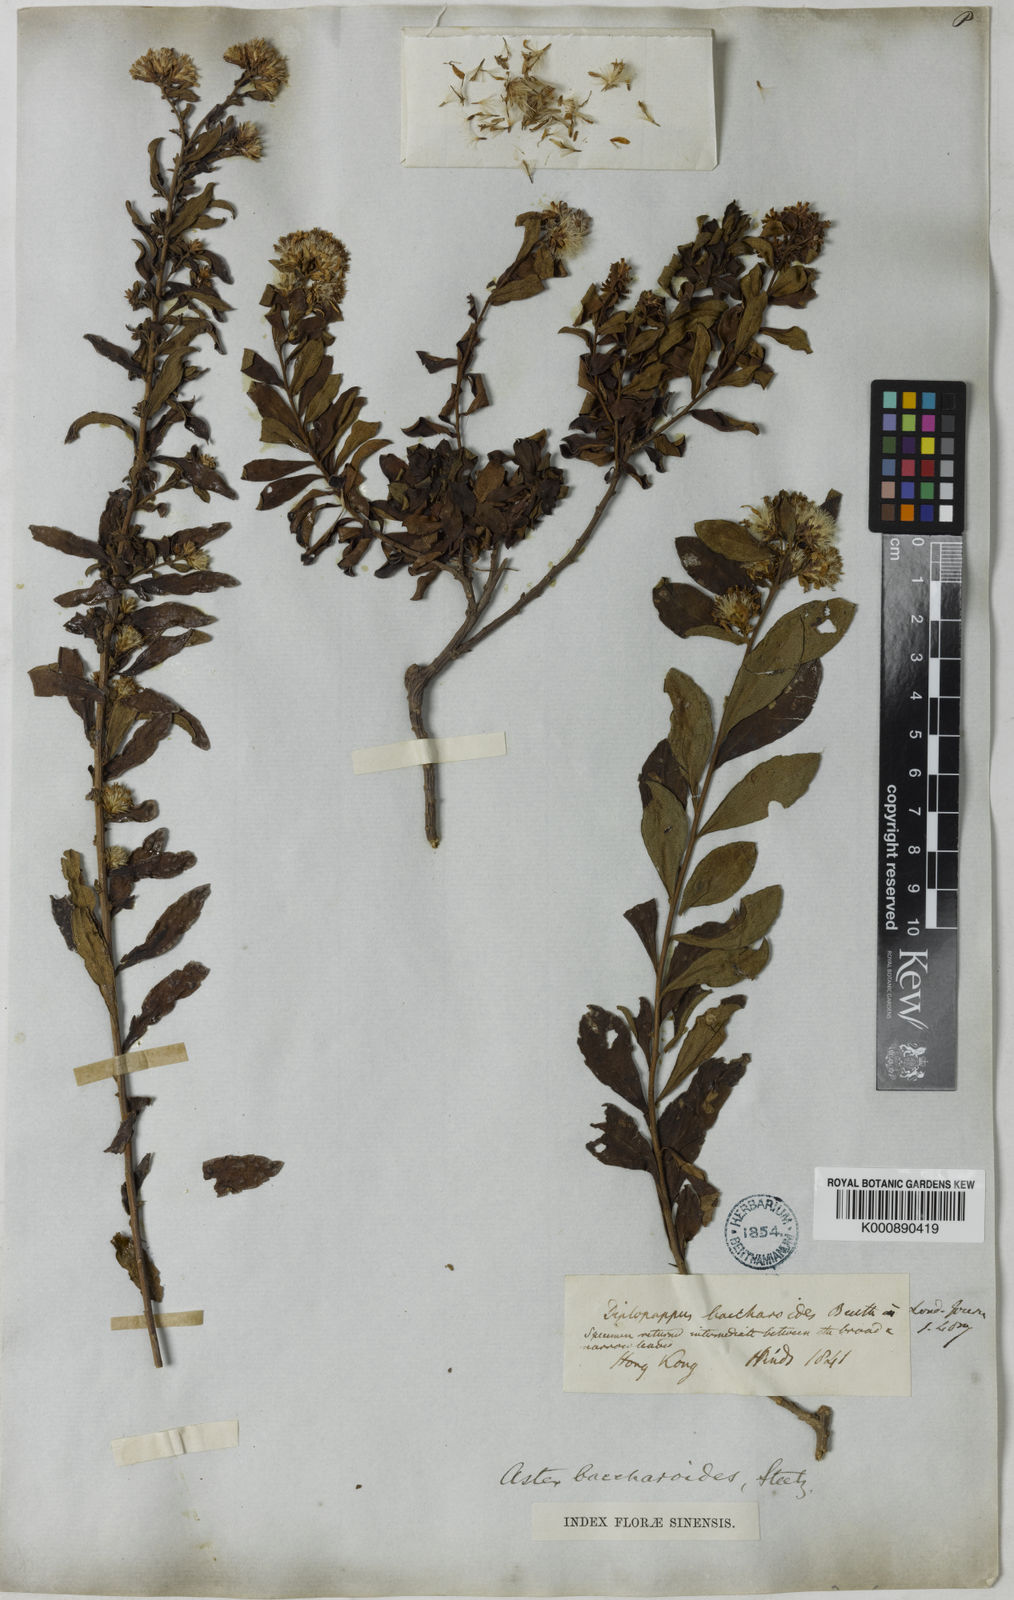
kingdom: Plantae
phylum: Tracheophyta
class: Magnoliopsida
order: Asterales
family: Asteraceae
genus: Aster
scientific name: Aster baccharoides
